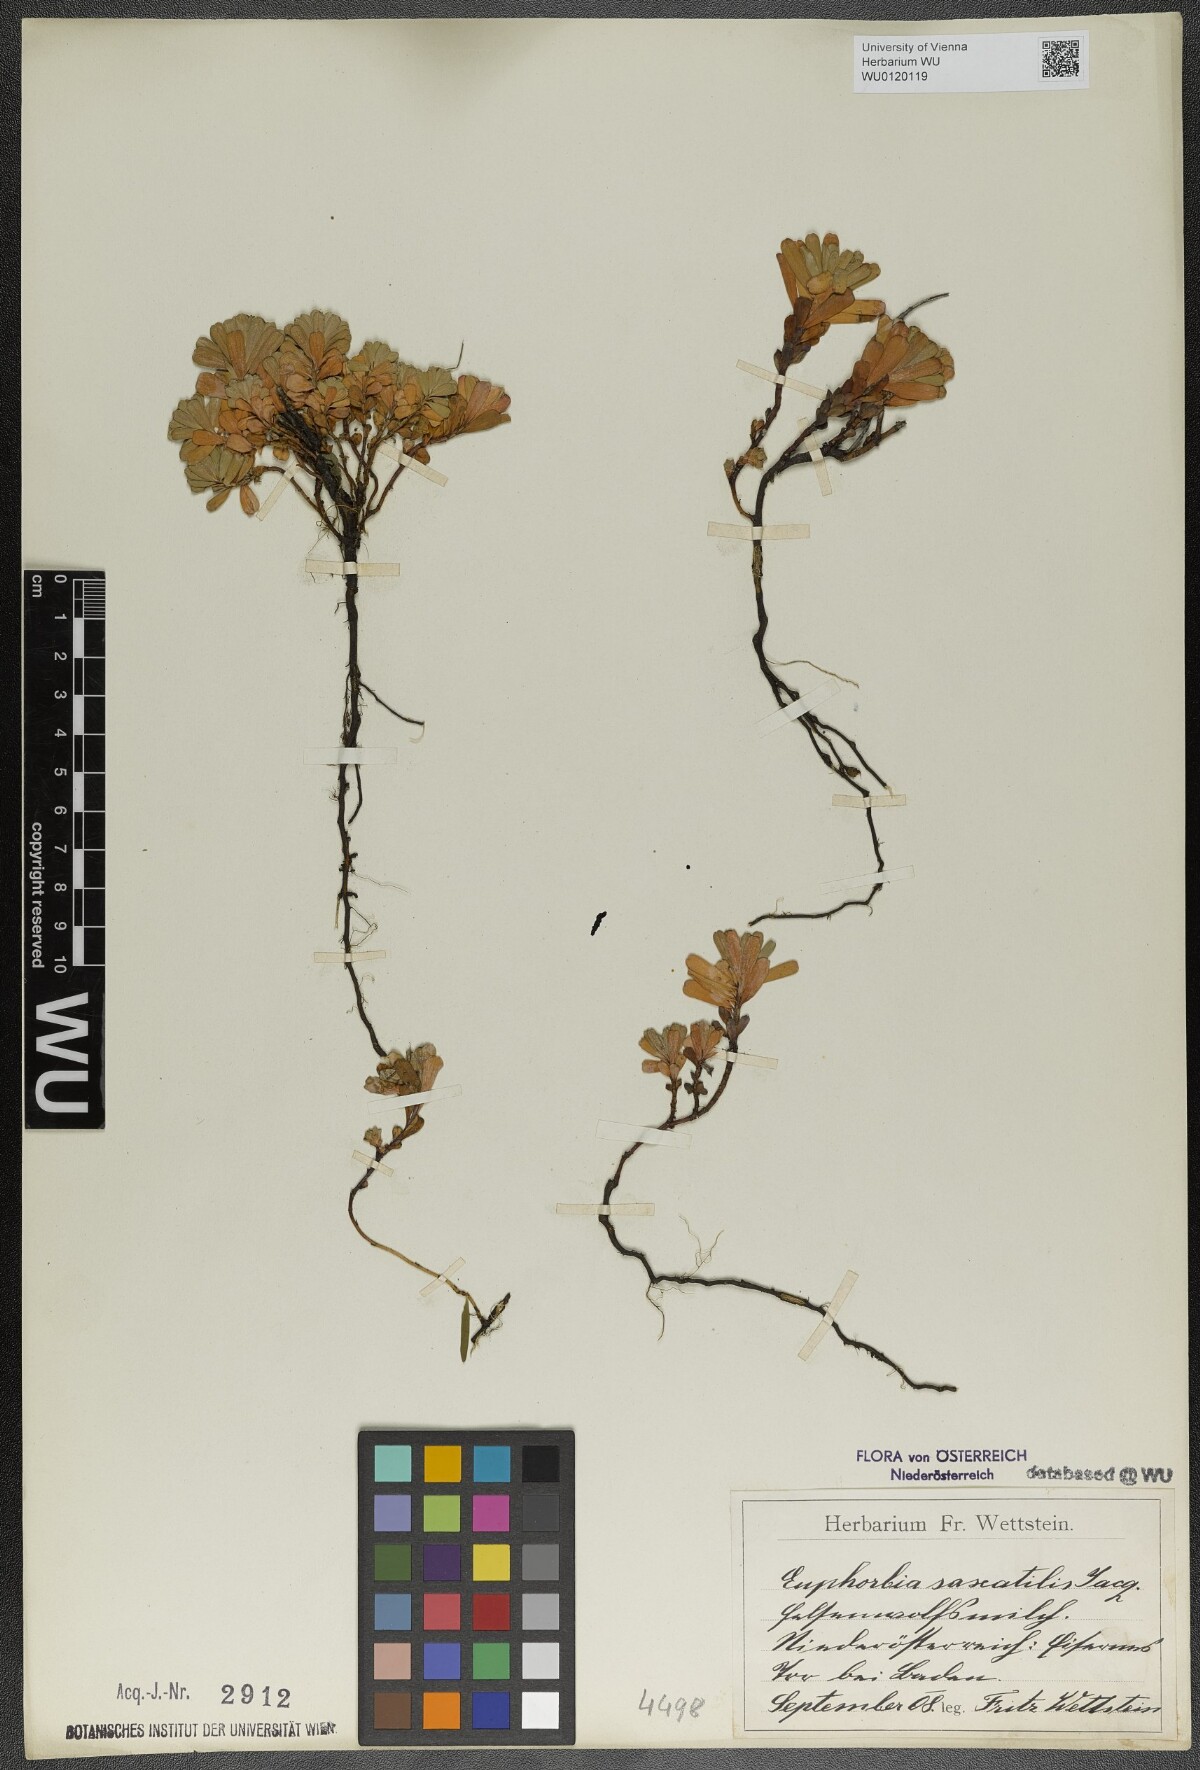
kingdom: Plantae
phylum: Tracheophyta
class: Magnoliopsida
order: Malpighiales
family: Euphorbiaceae
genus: Euphorbia
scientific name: Euphorbia saxatilis
